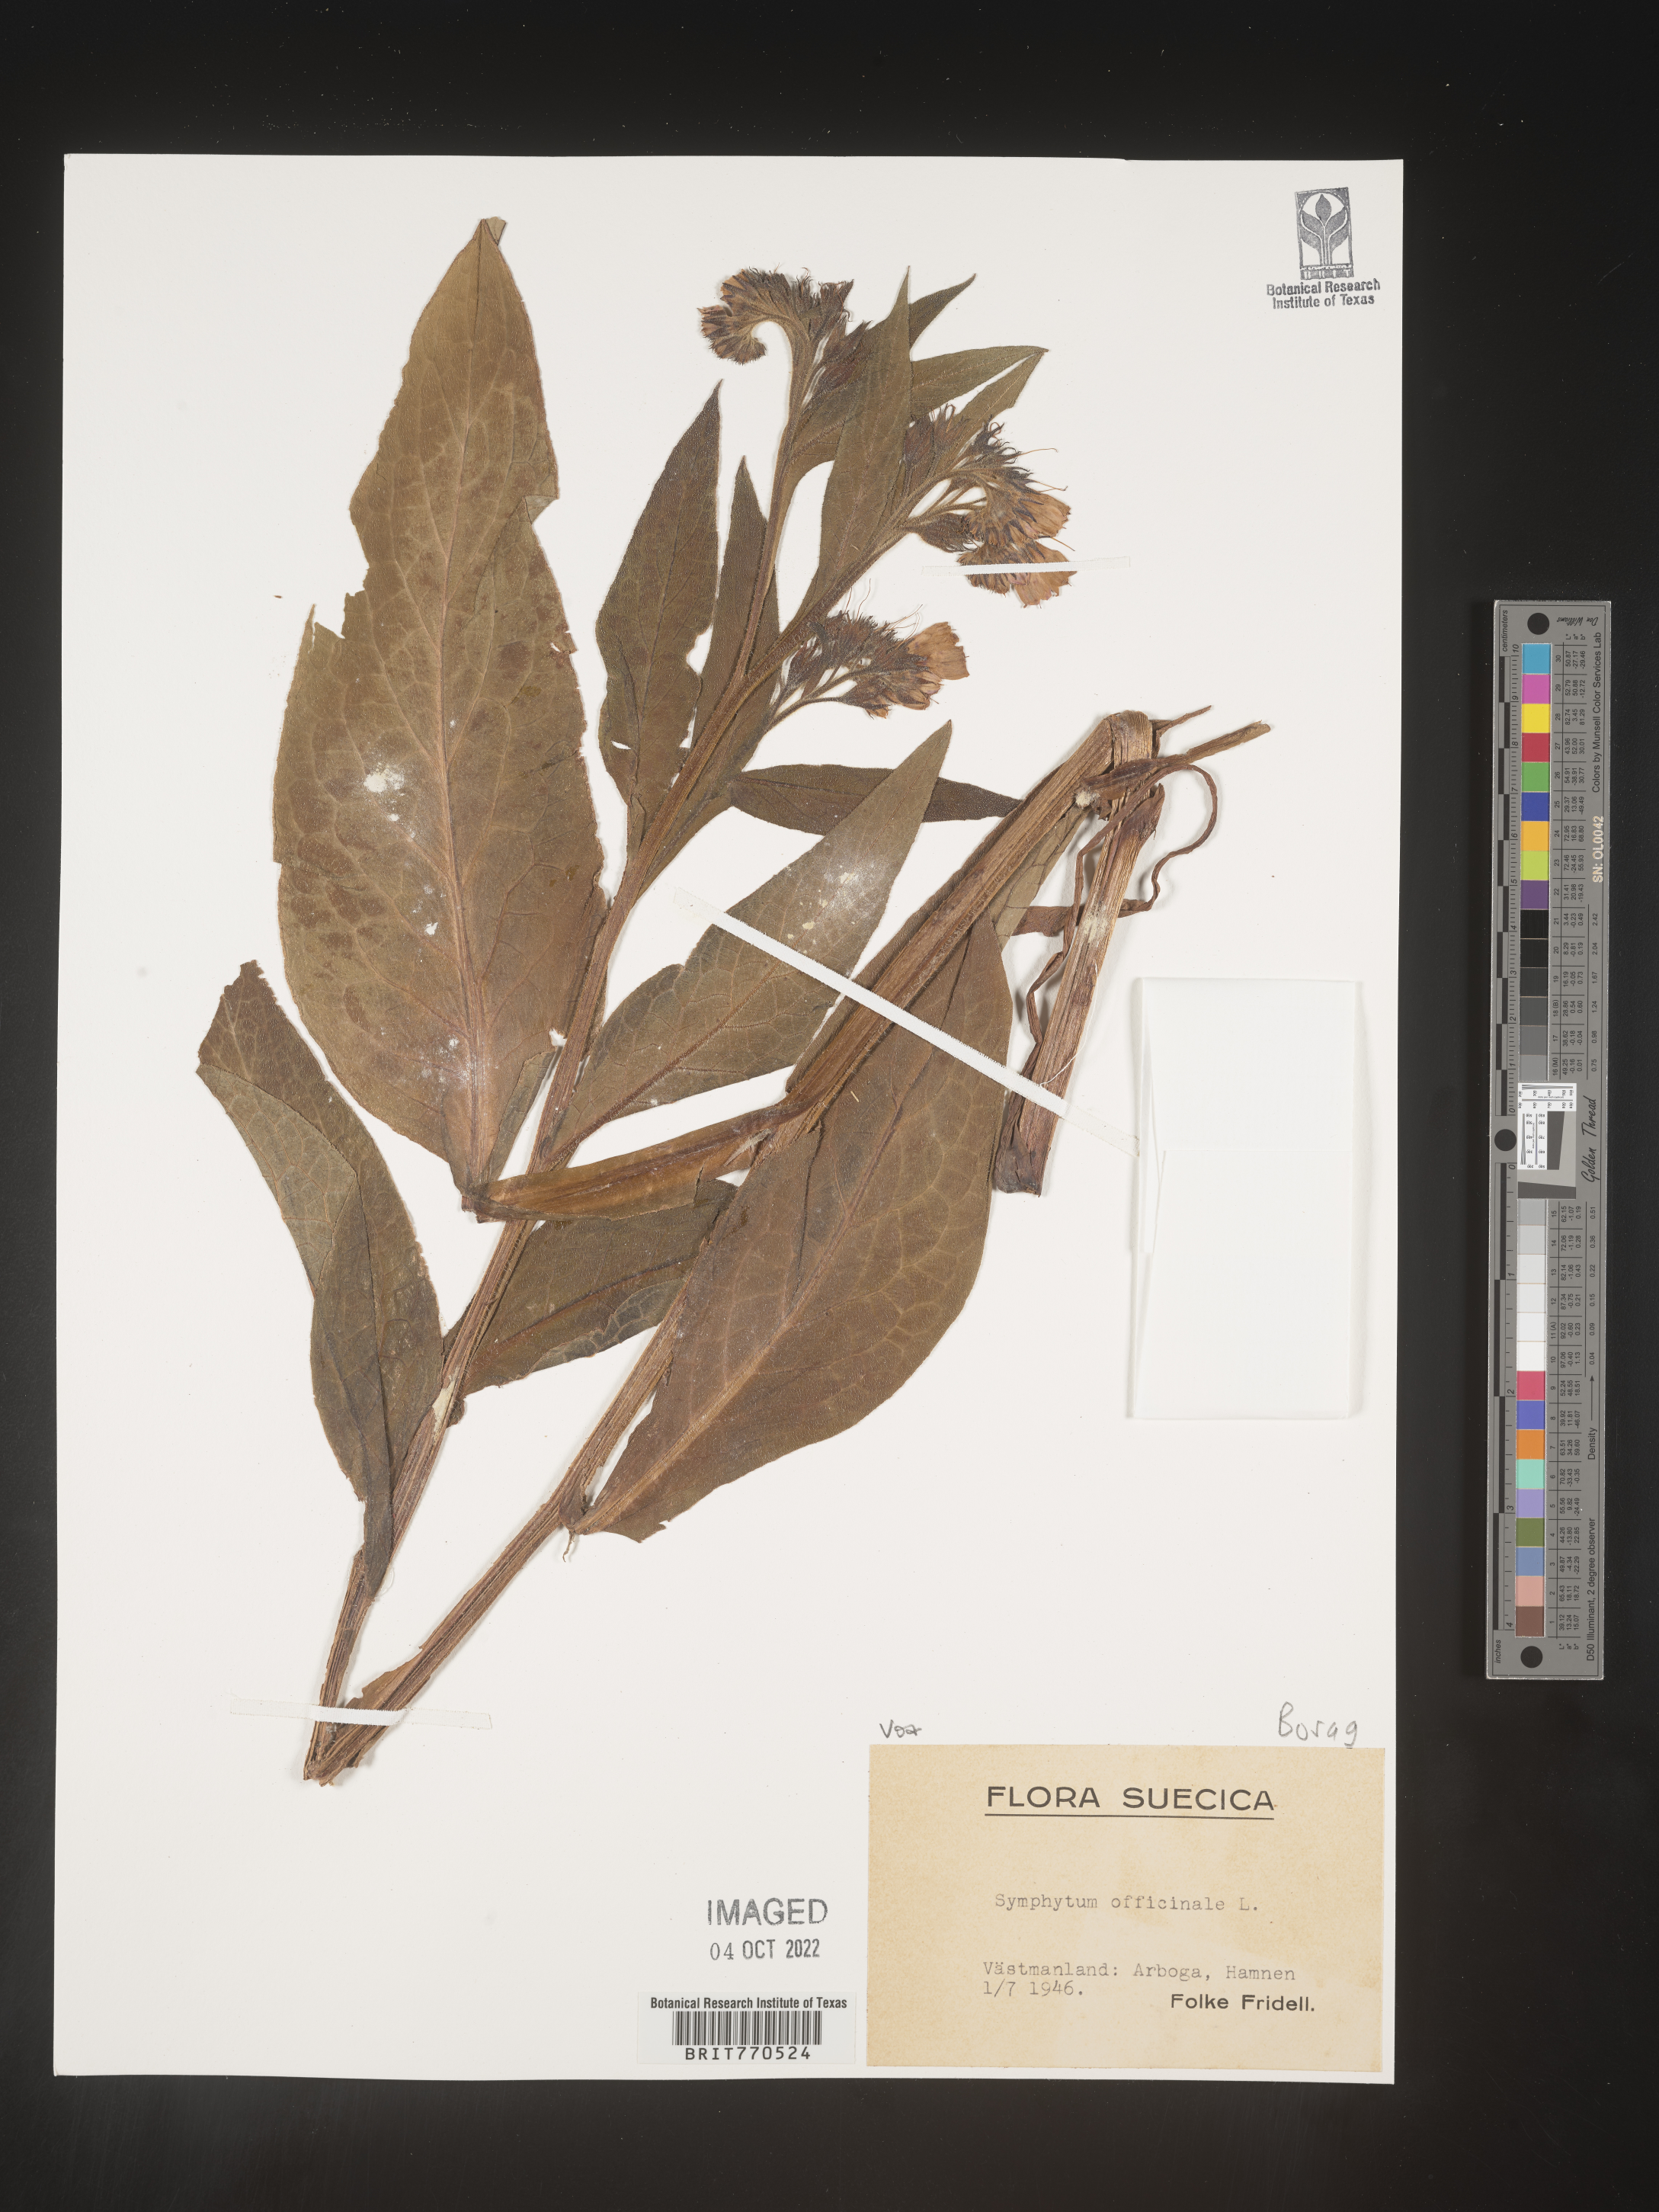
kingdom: Plantae
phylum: Tracheophyta
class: Magnoliopsida
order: Boraginales
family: Boraginaceae
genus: Symphytum
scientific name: Symphytum
